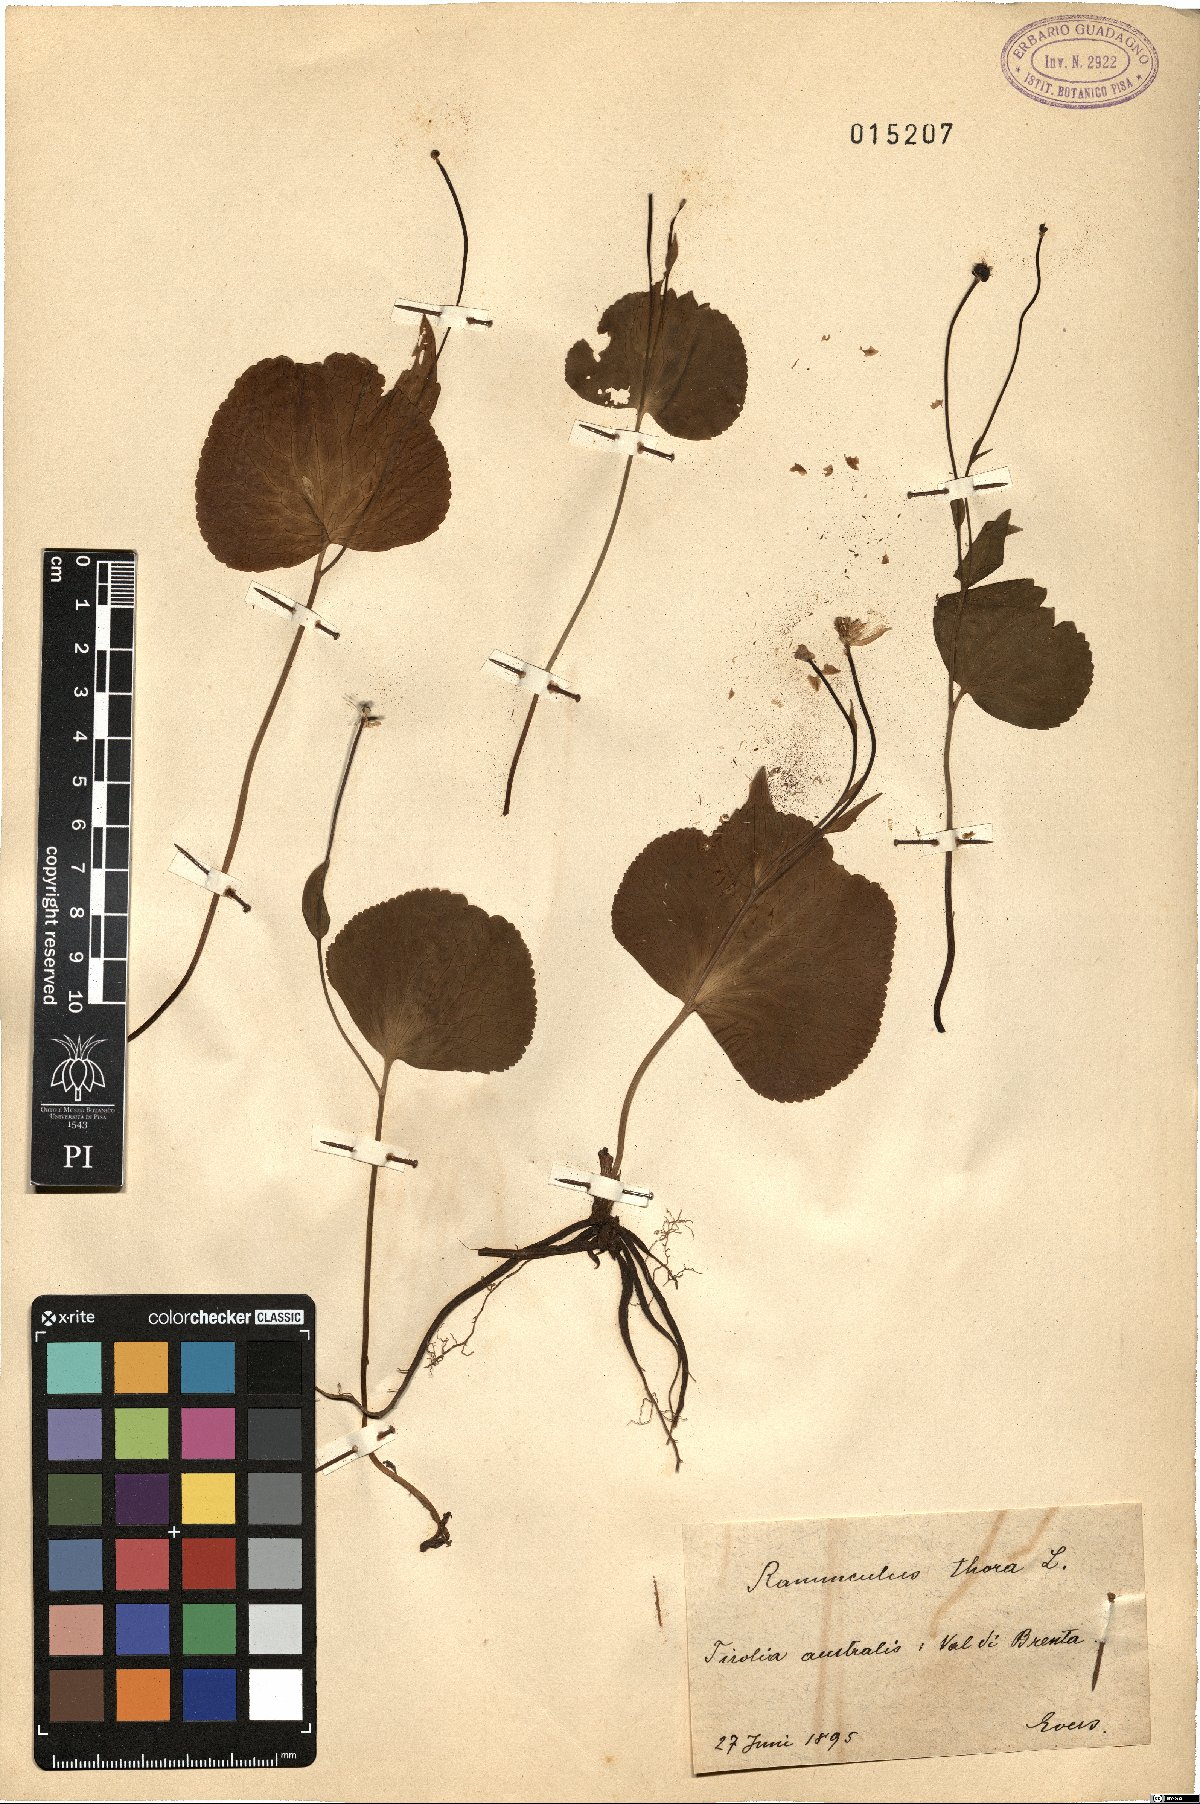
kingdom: Plantae
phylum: Tracheophyta
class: Magnoliopsida
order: Ranunculales
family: Ranunculaceae
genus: Ranunculus
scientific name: Ranunculus thora
